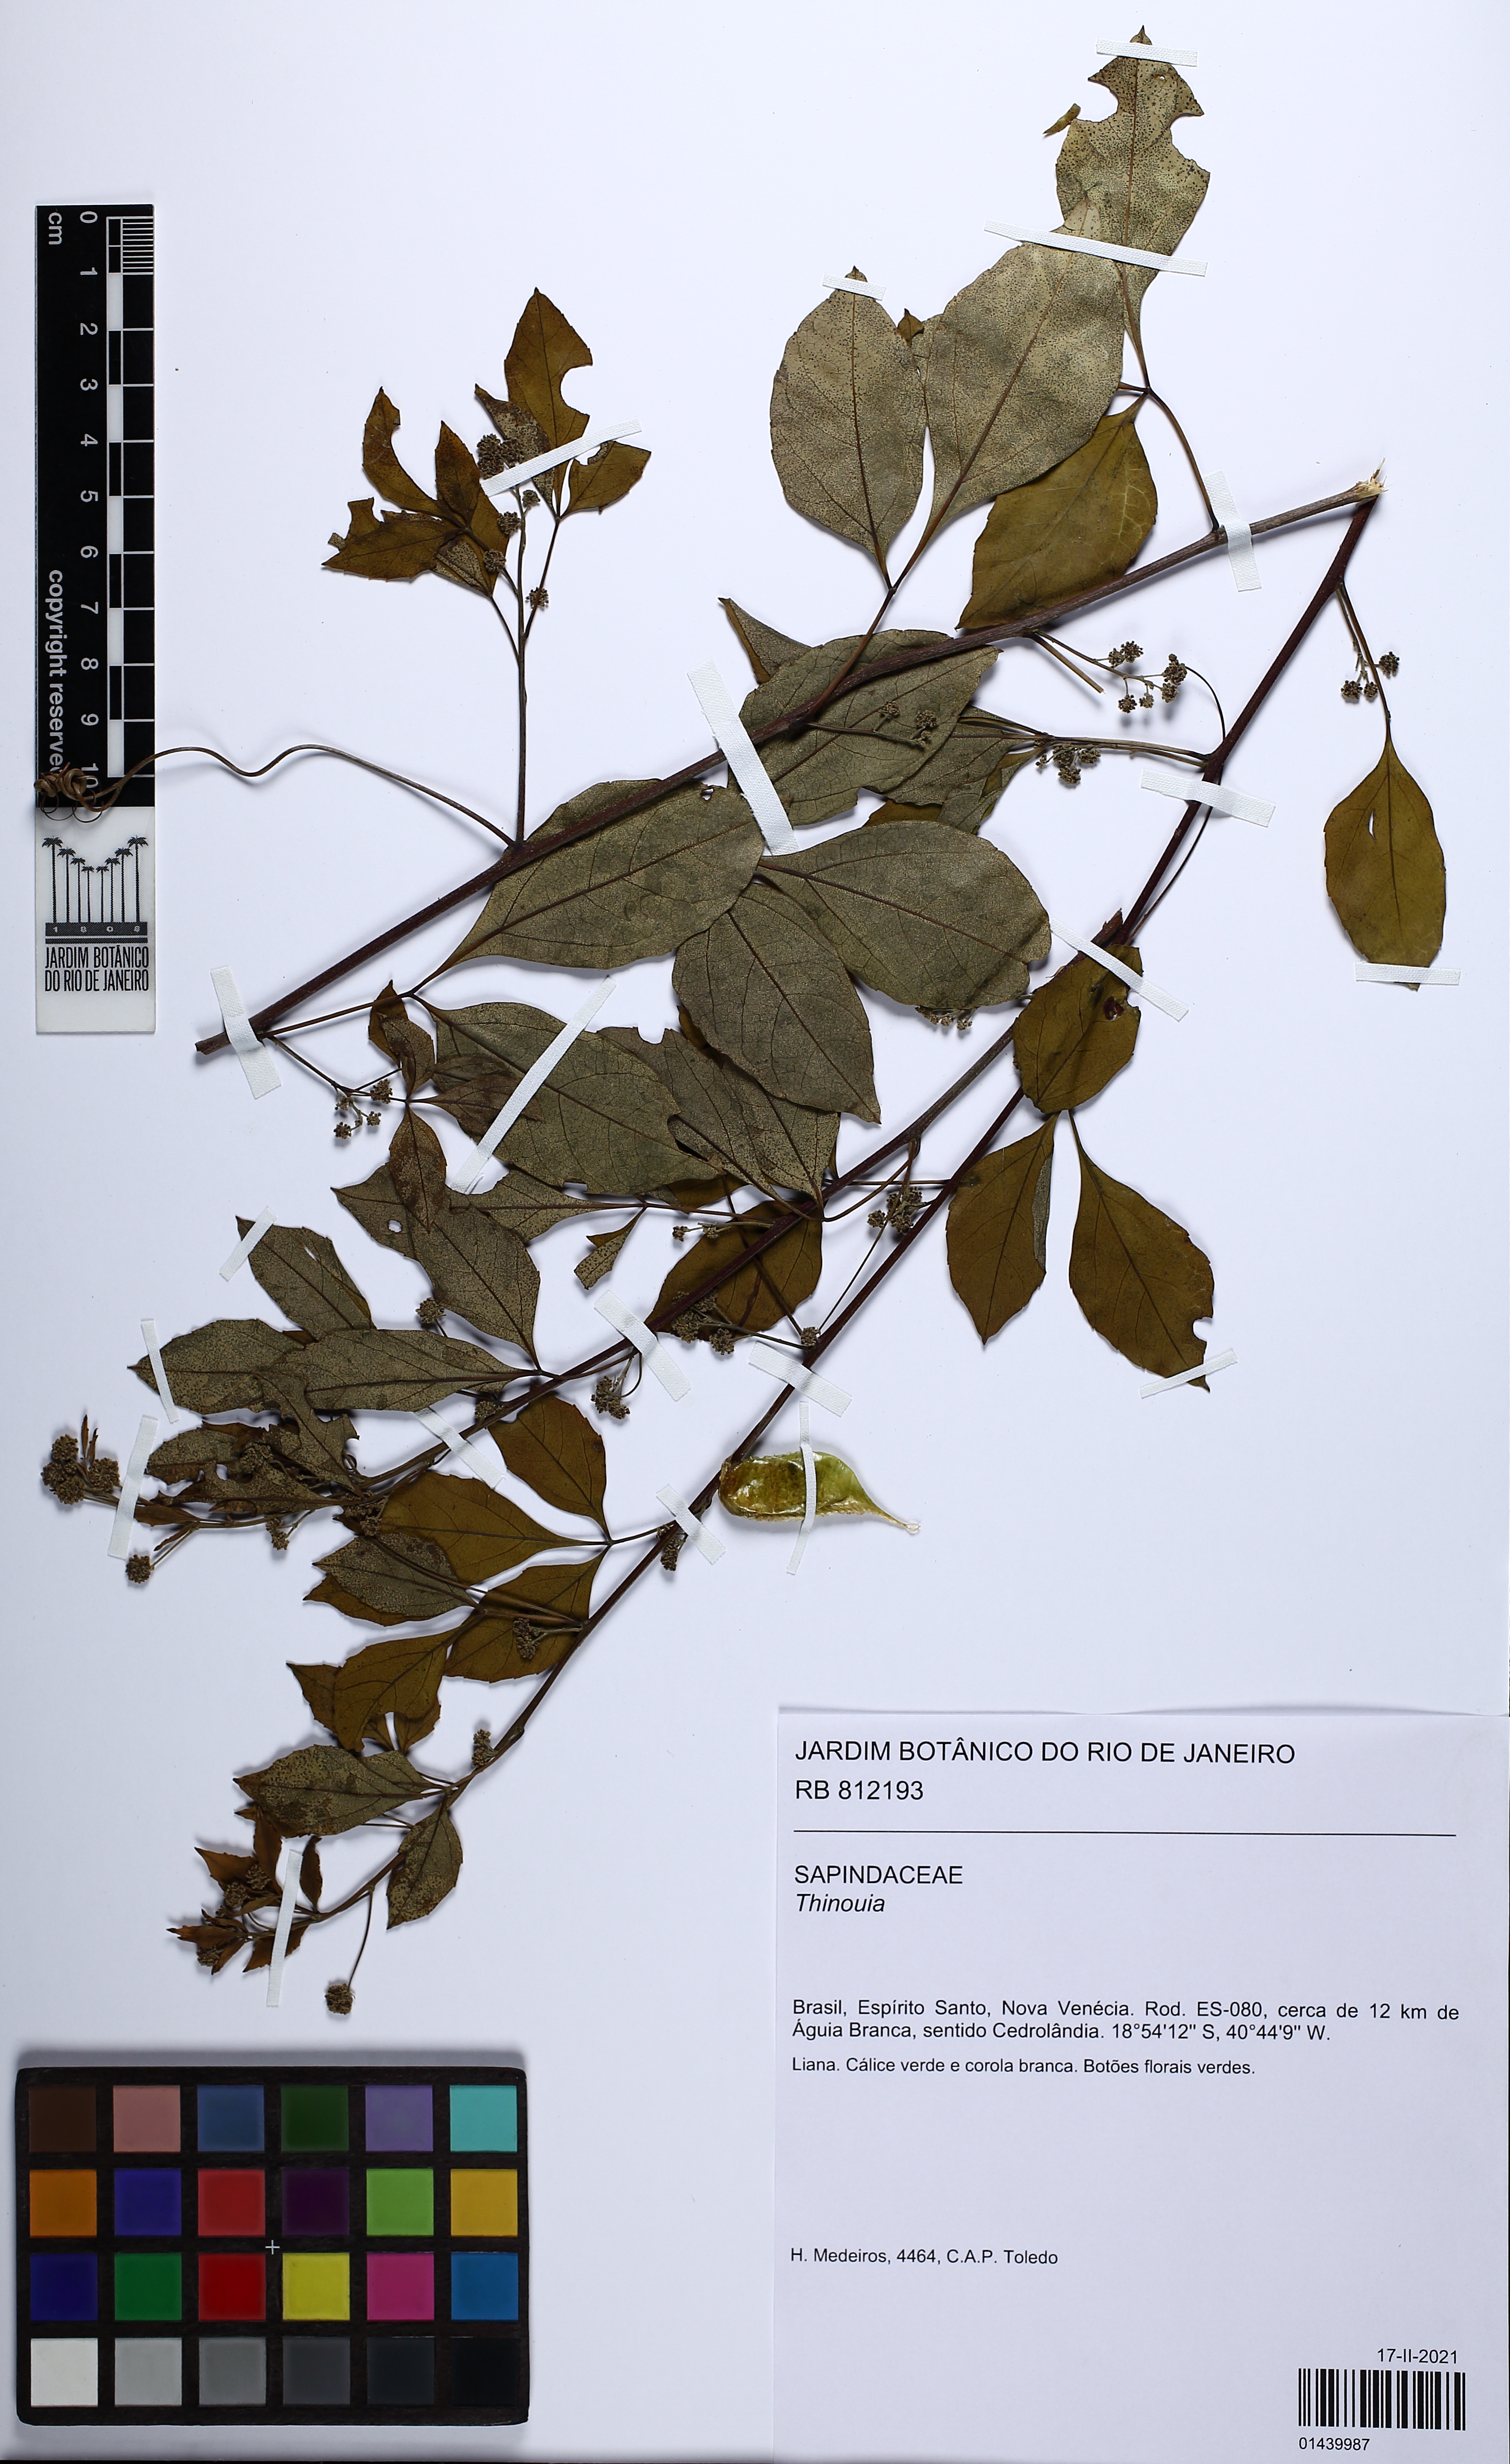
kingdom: Plantae
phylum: Tracheophyta
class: Magnoliopsida
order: Sapindales
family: Sapindaceae
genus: Thinouia
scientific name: Thinouia
